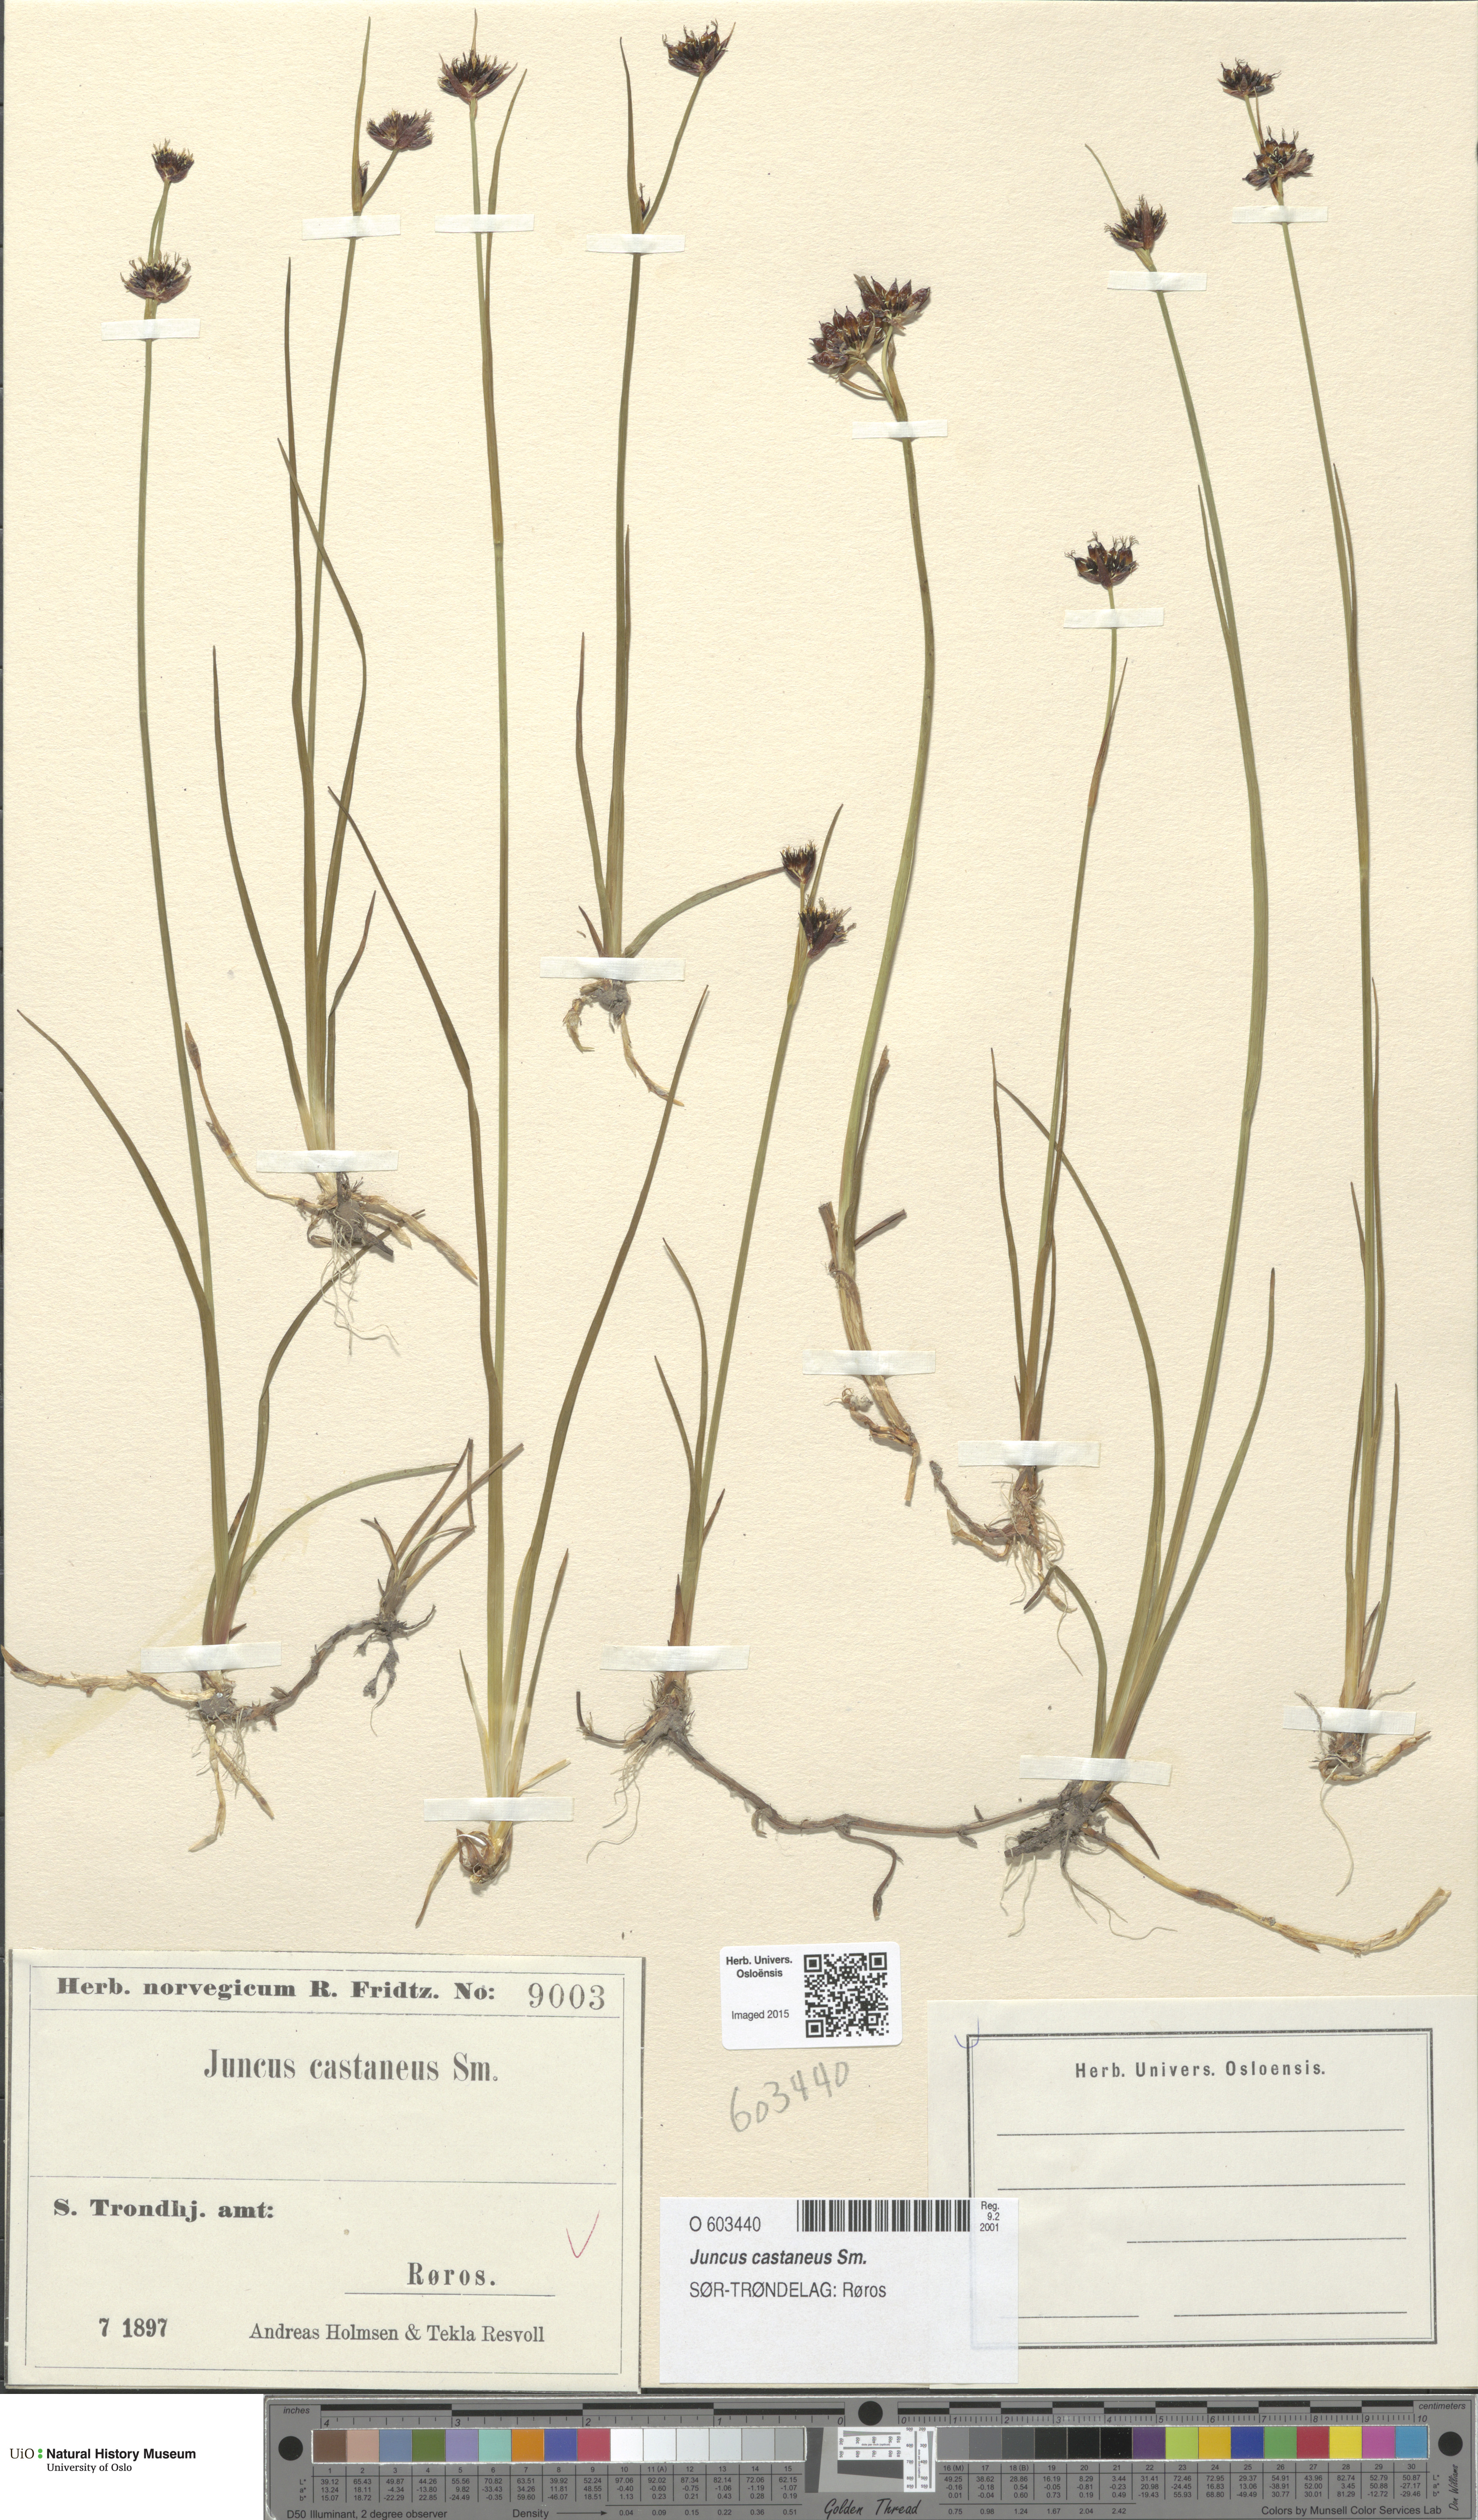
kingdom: Plantae
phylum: Tracheophyta
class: Liliopsida
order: Poales
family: Juncaceae
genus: Juncus
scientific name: Juncus castaneus
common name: Chestnut rush
